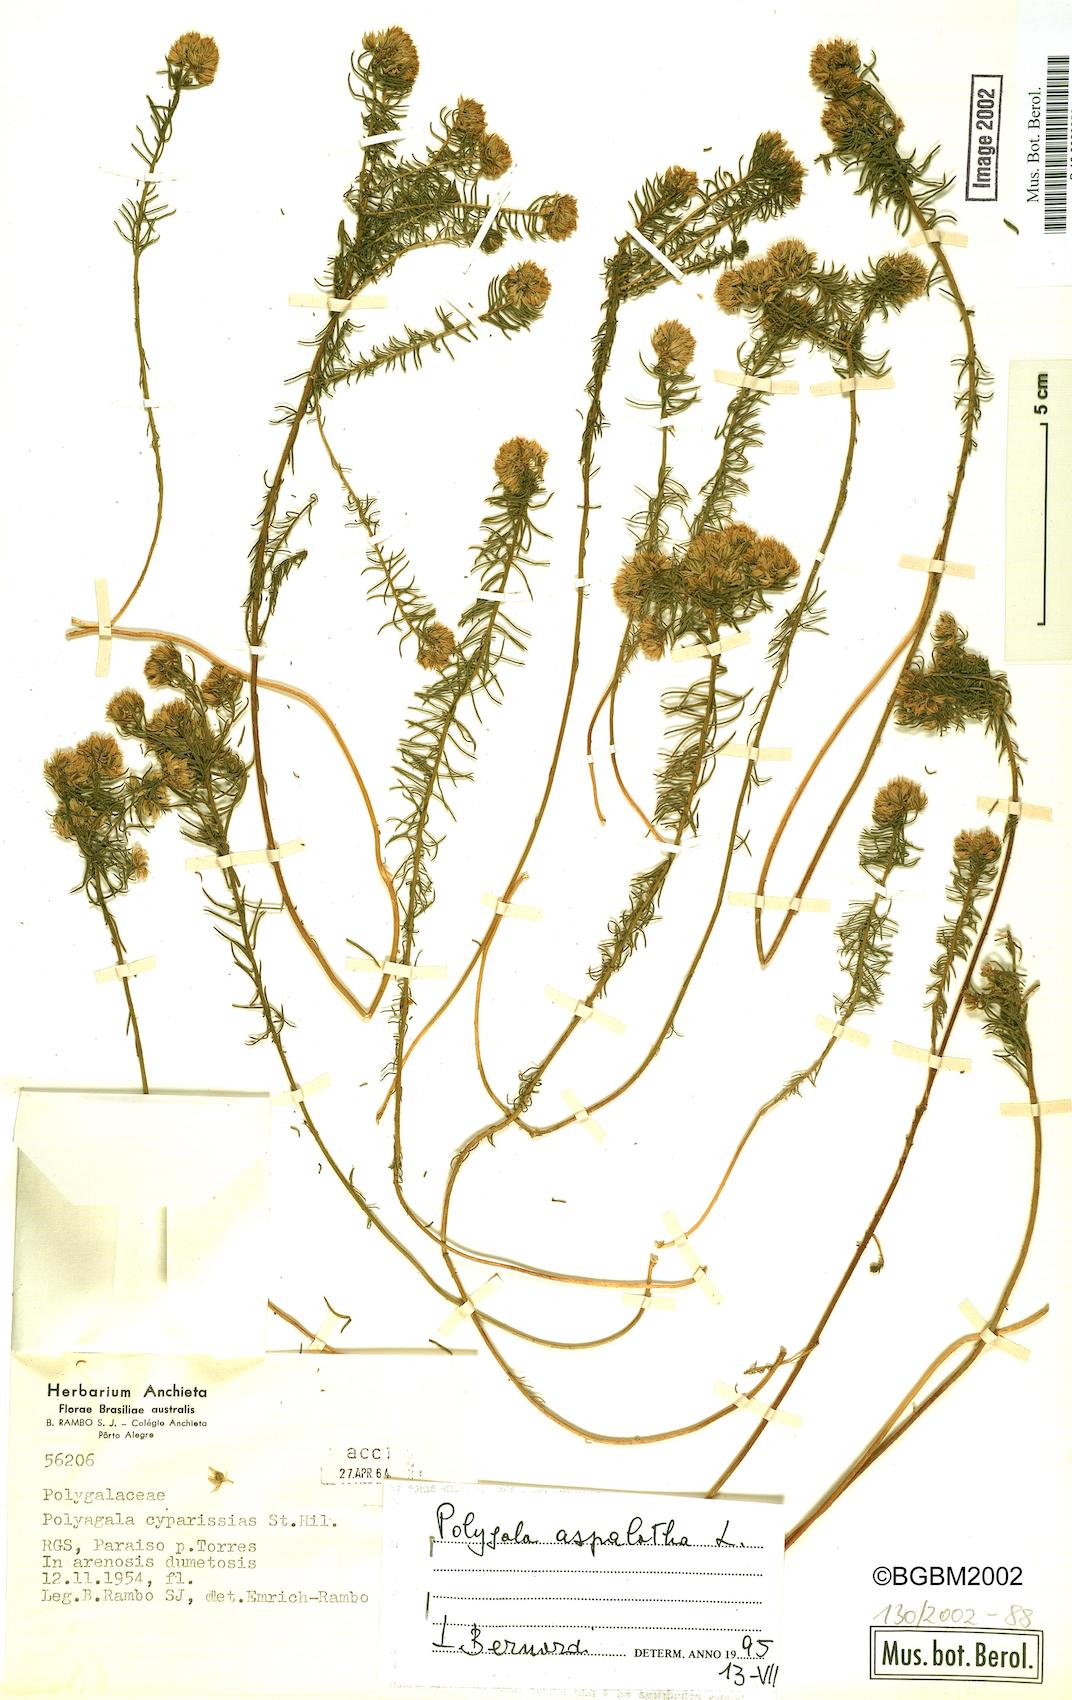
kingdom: Plantae
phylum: Tracheophyta
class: Magnoliopsida
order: Fabales
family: Polygalaceae
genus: Polygala
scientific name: Polygala aspalatha
